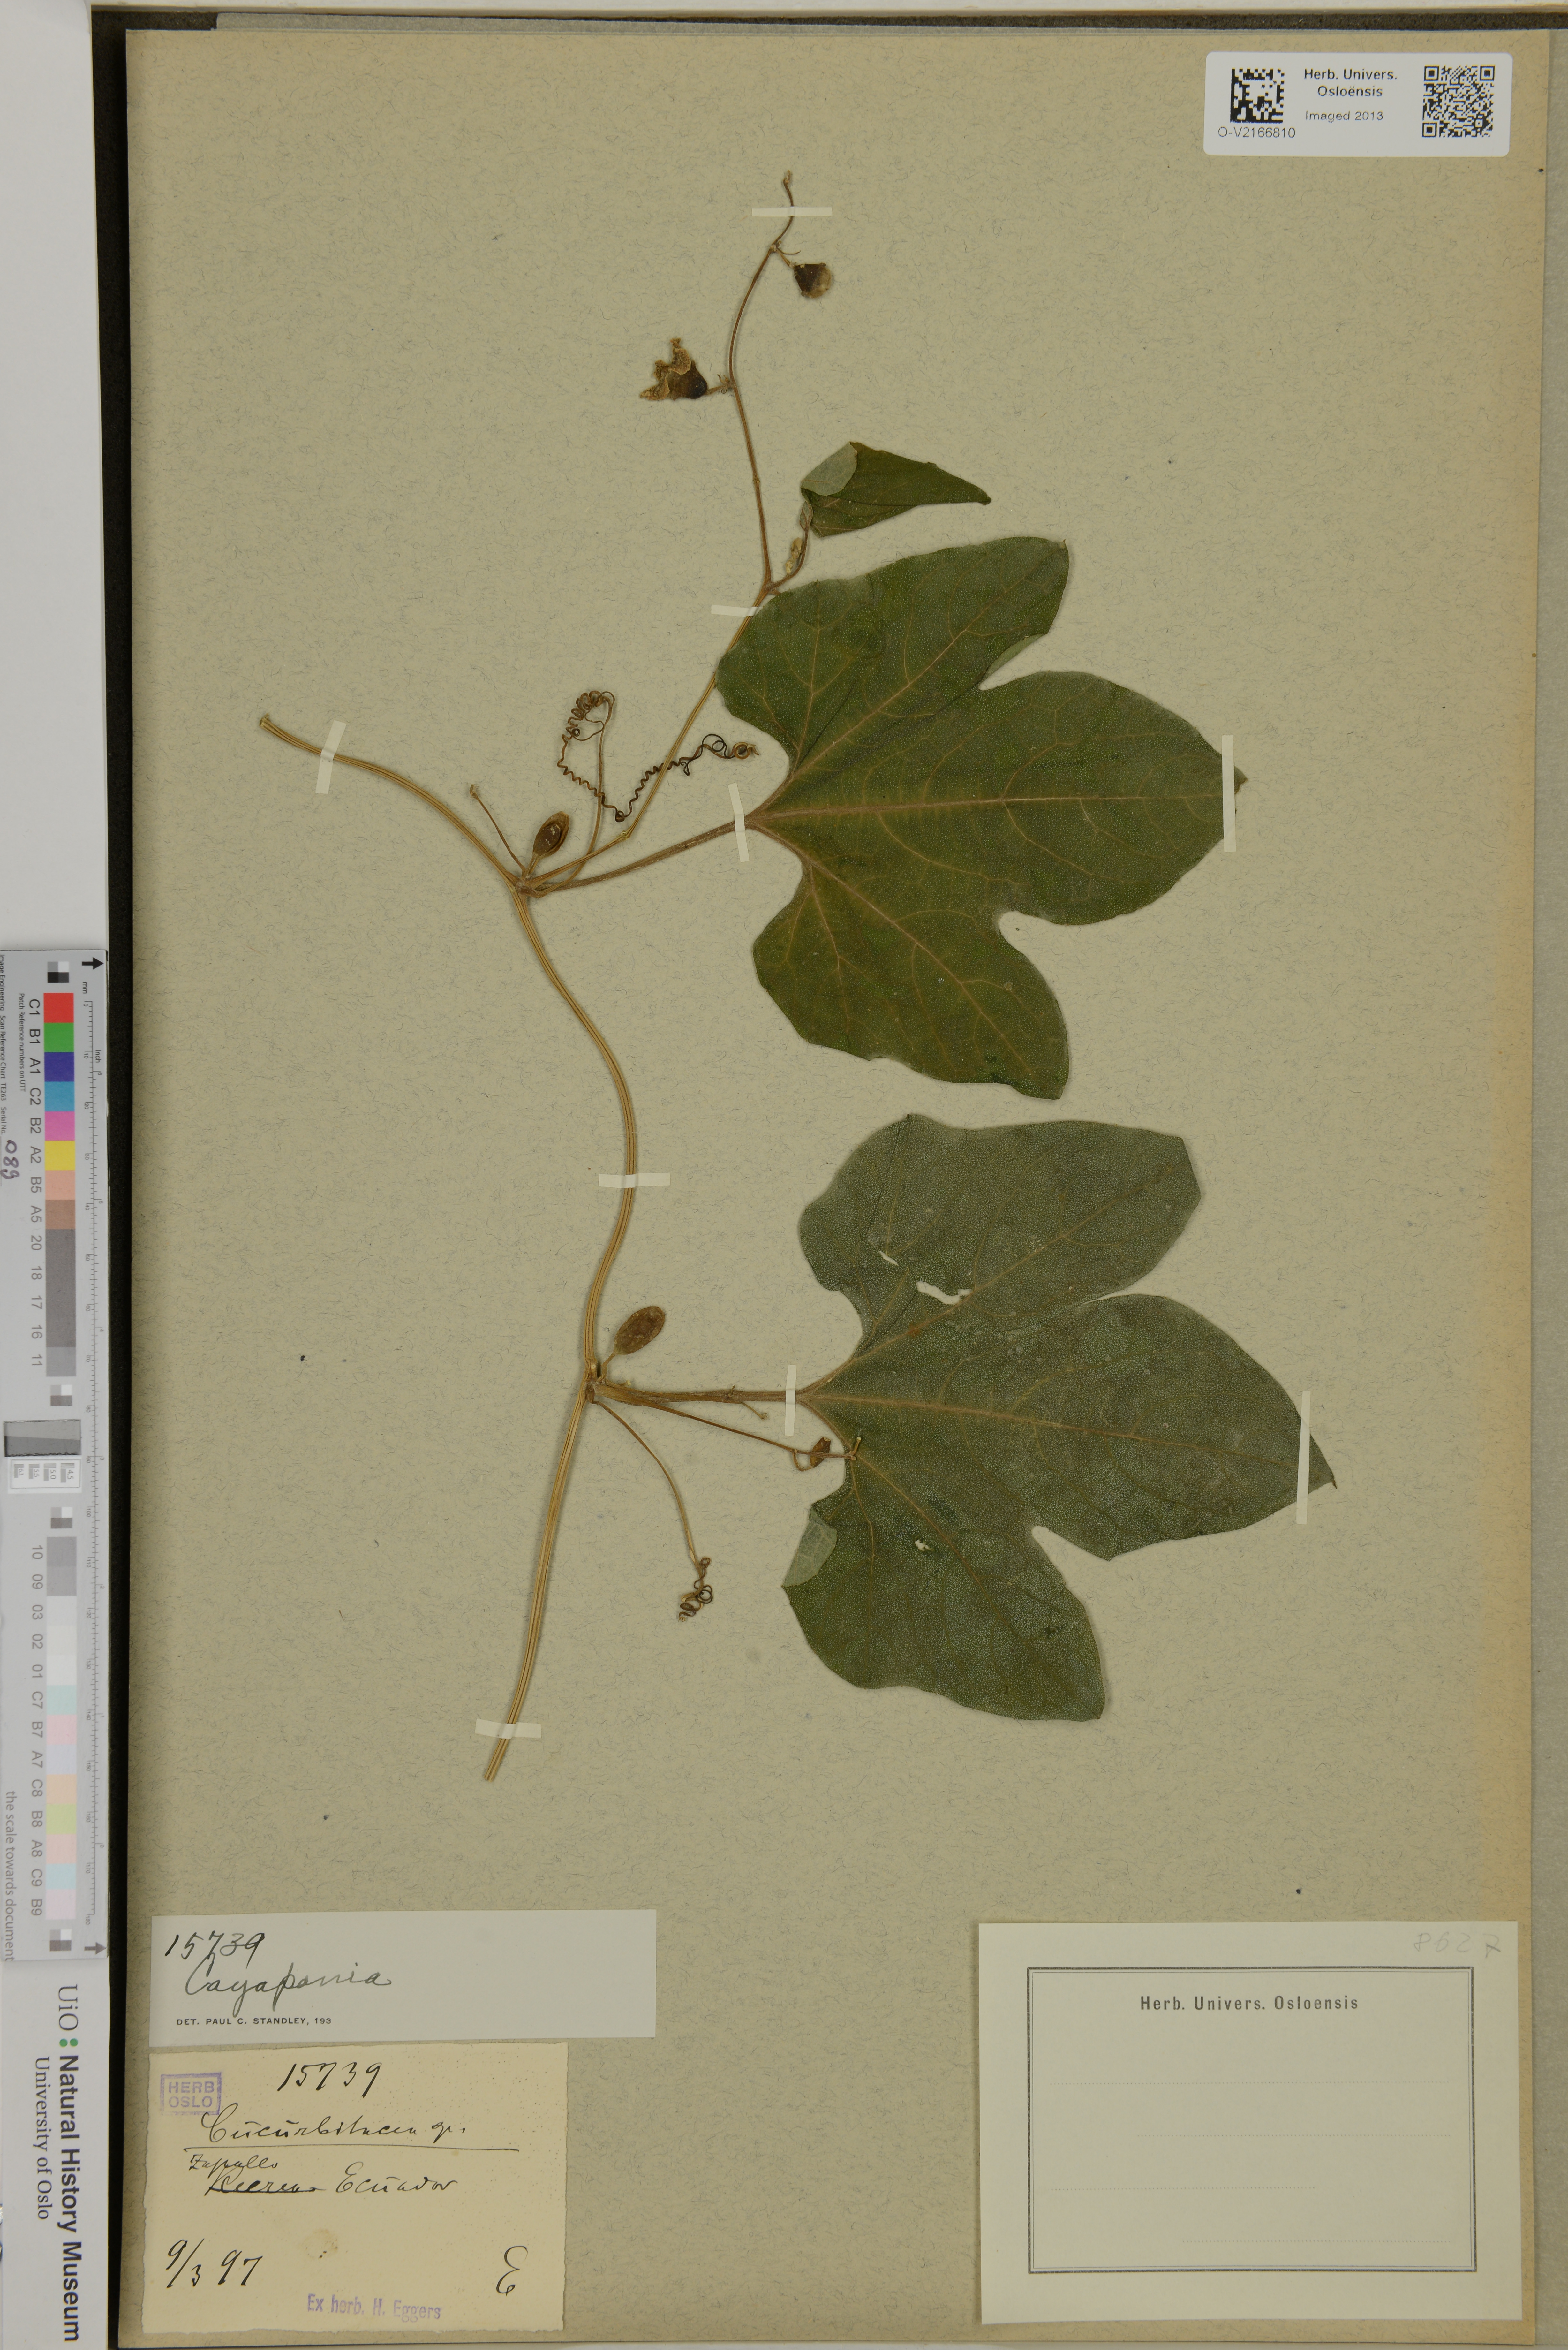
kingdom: Plantae
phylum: Tracheophyta
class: Magnoliopsida
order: Cucurbitales
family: Cucurbitaceae
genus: Cayaponia
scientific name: Cayaponia
